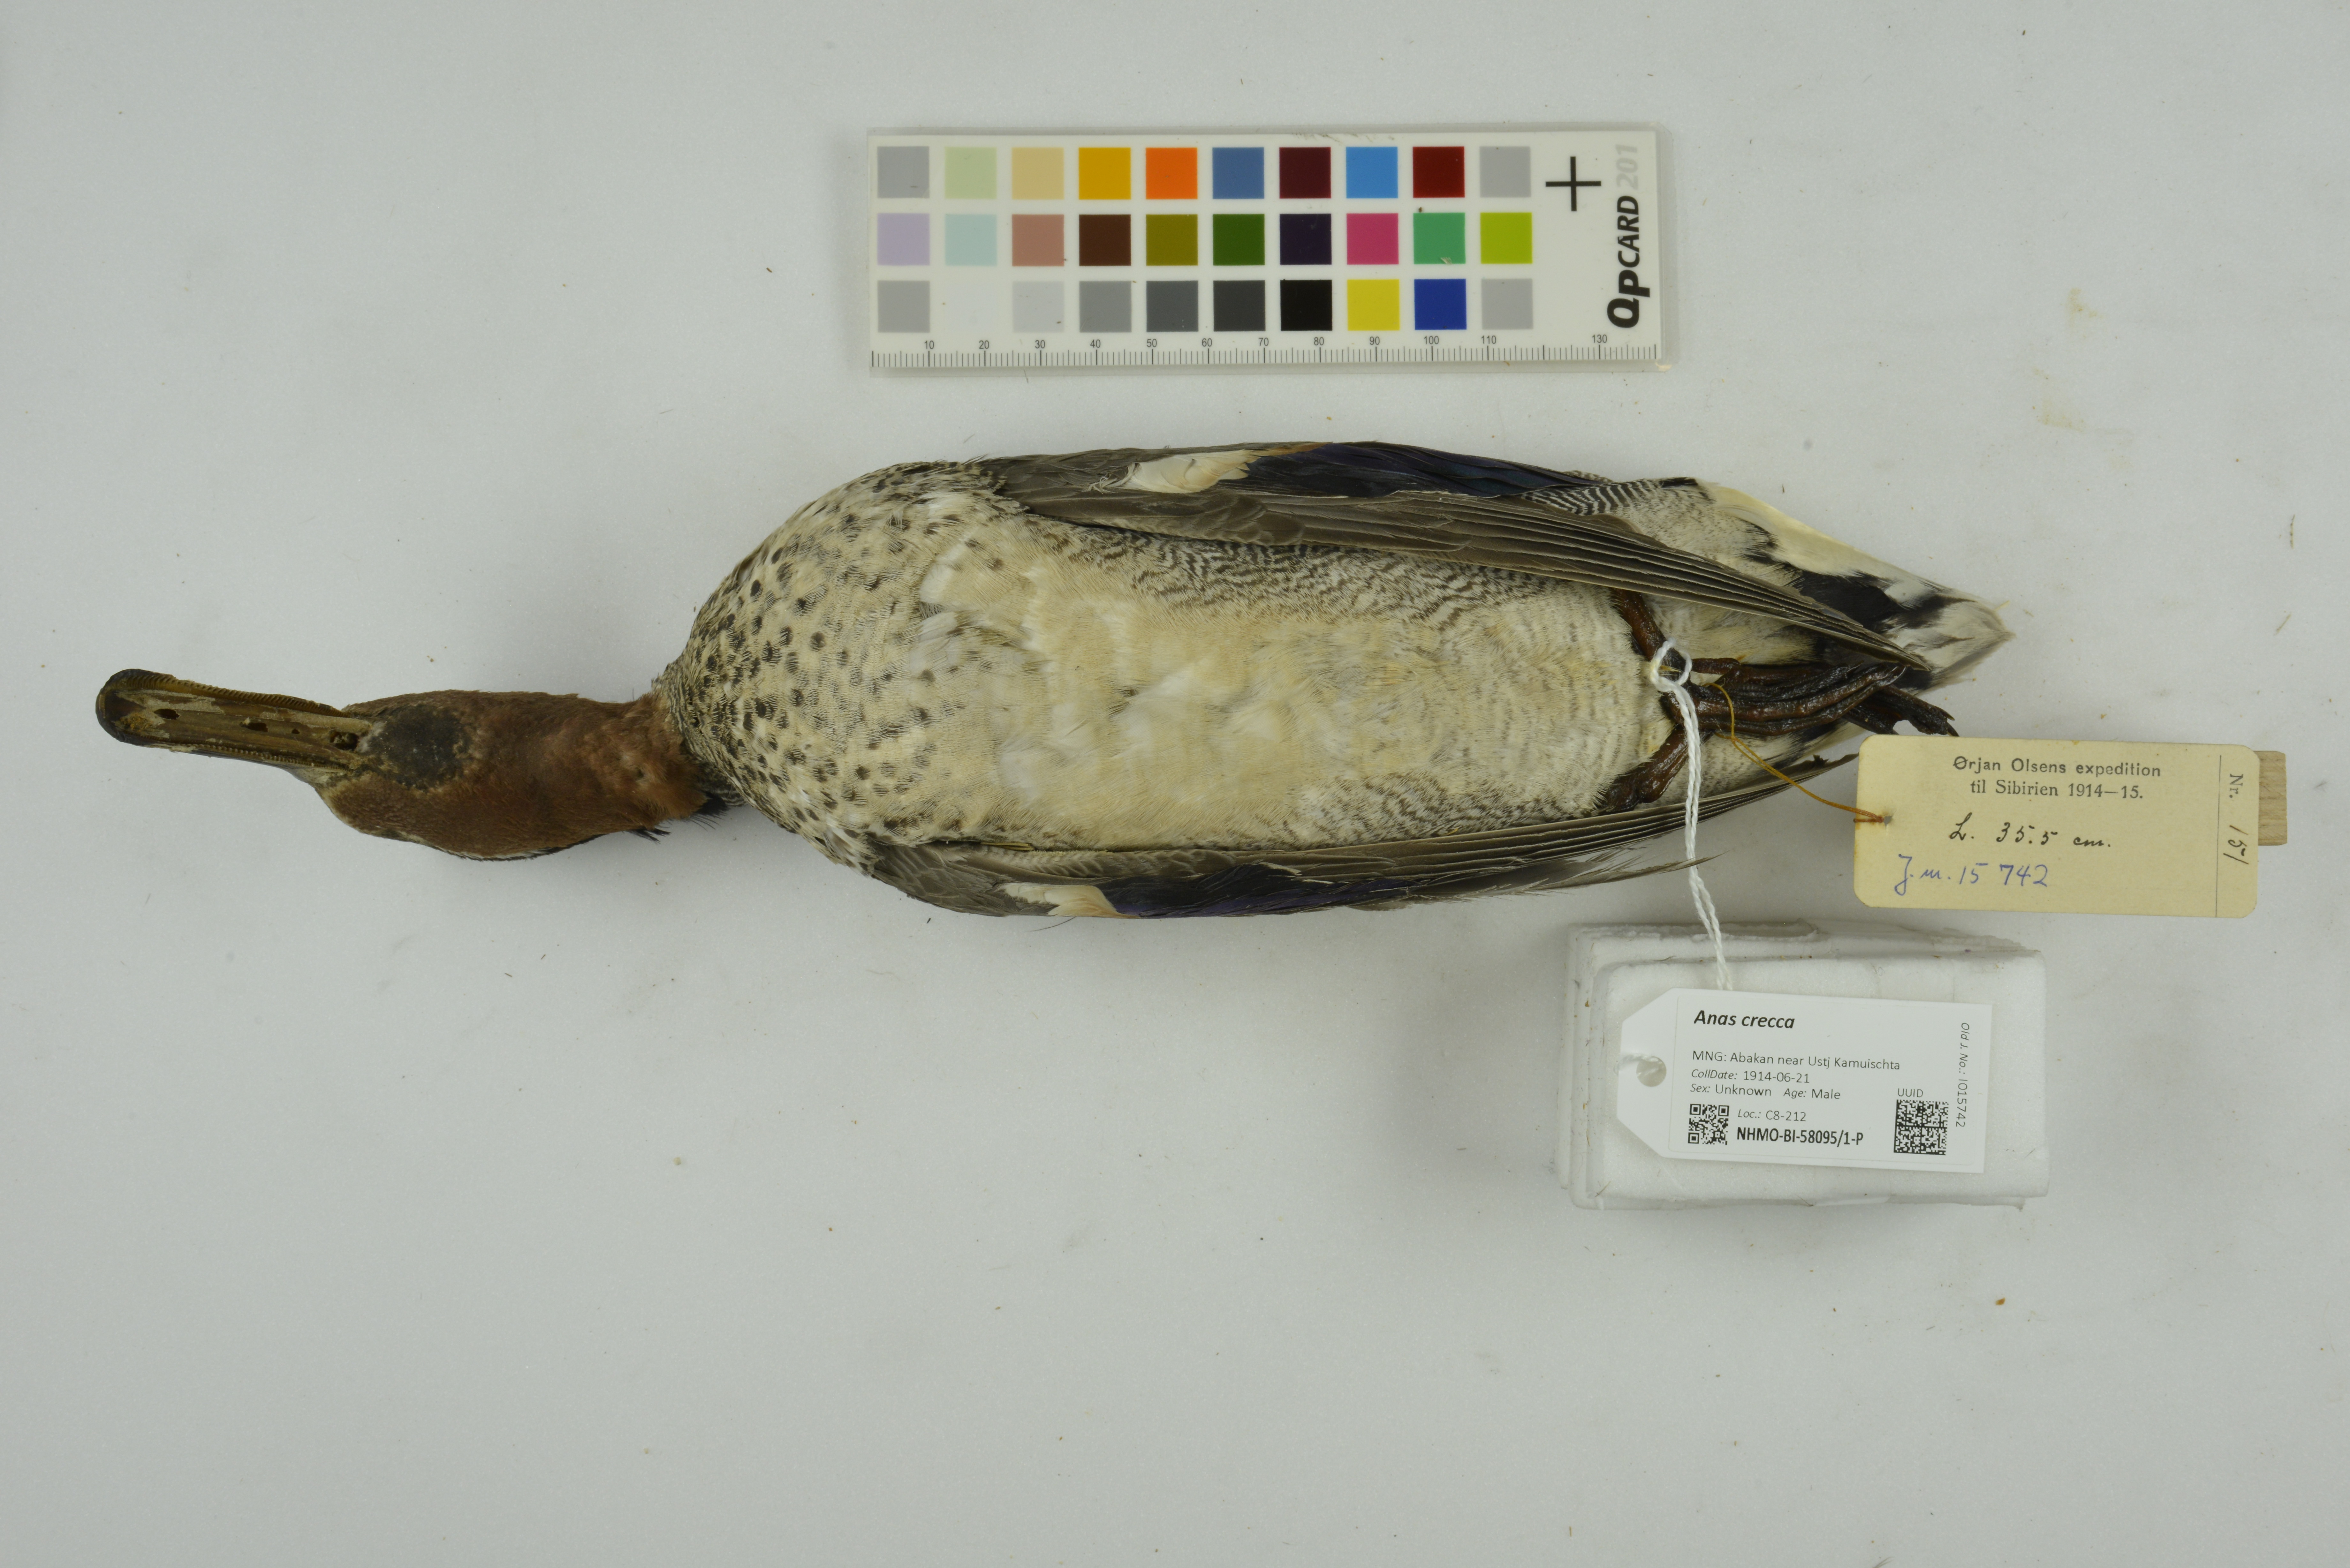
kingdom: Animalia
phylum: Chordata
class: Aves
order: Anseriformes
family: Anatidae
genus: Anas
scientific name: Anas crecca
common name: Eurasian teal
